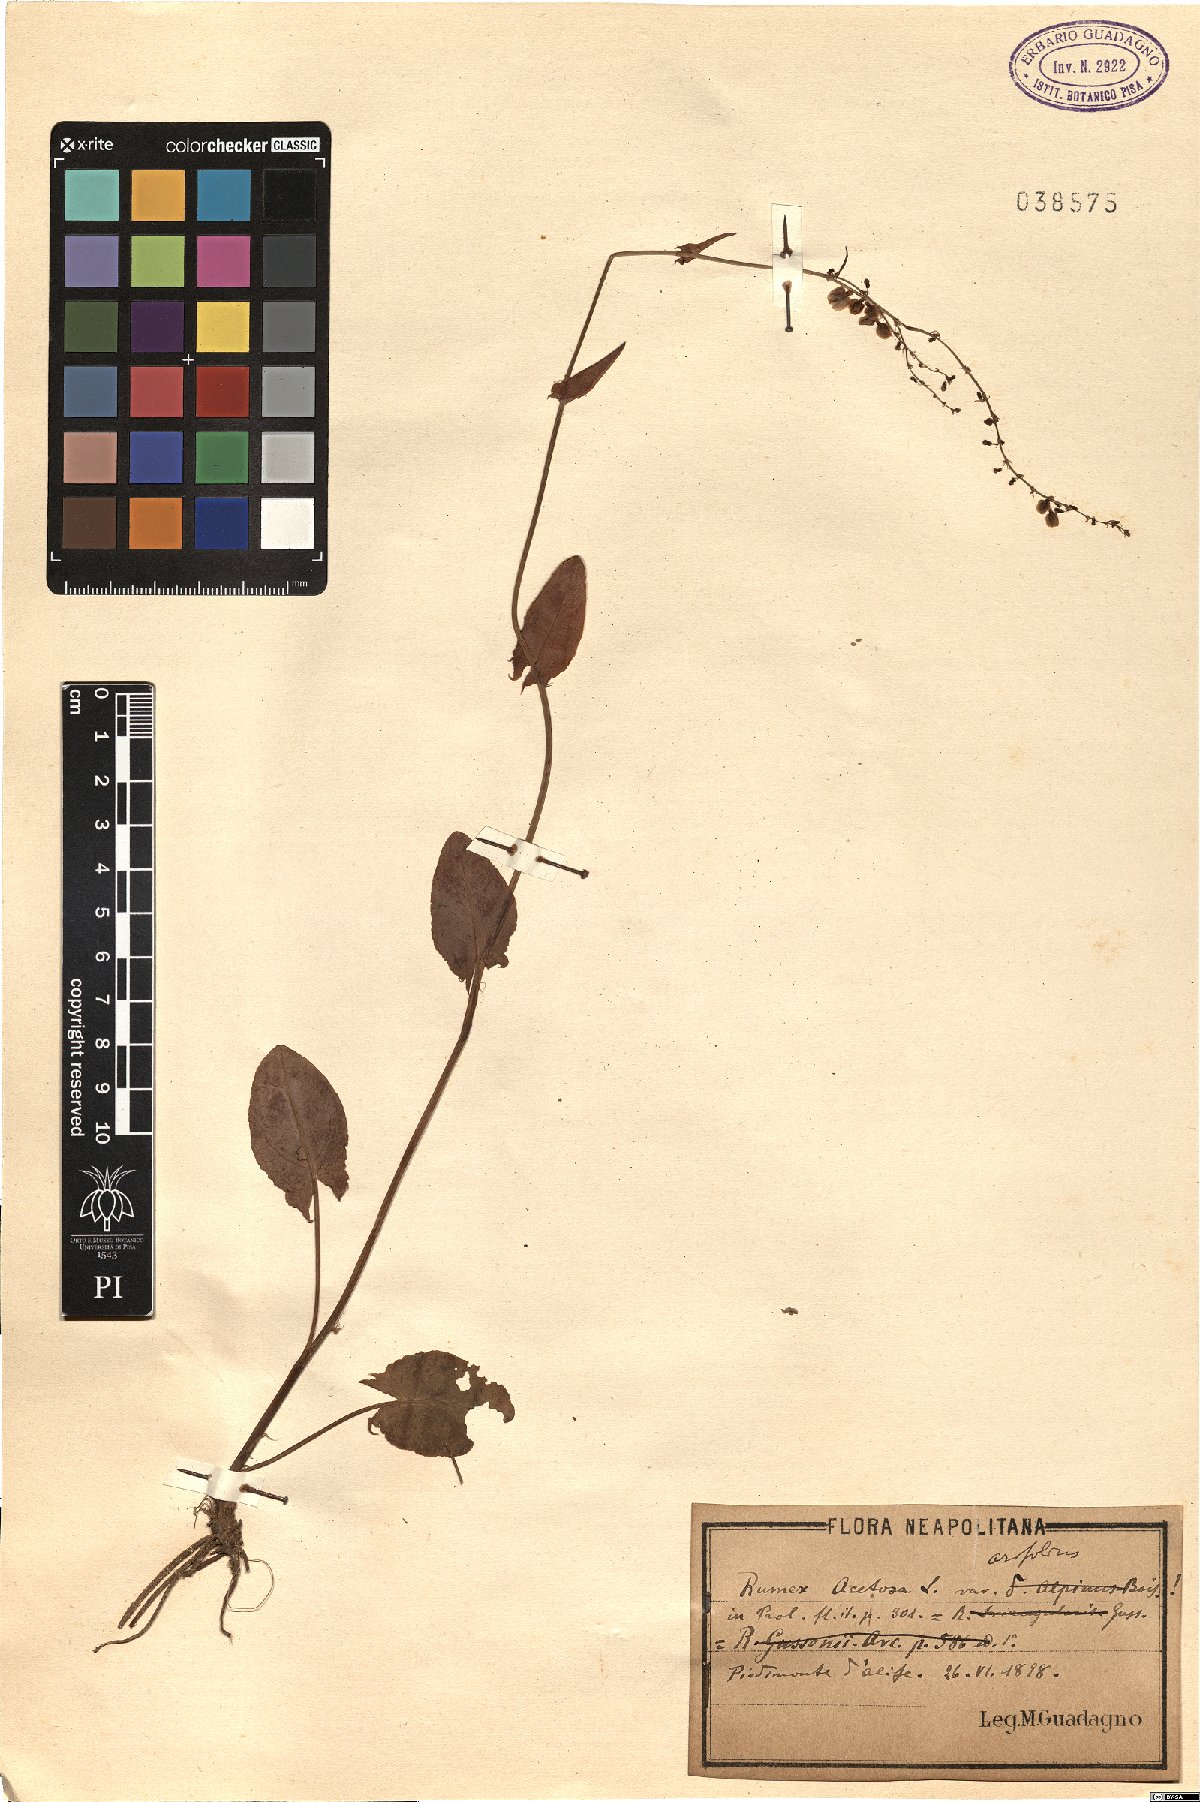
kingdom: Plantae
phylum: Tracheophyta
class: Magnoliopsida
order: Caryophyllales
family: Polygonaceae
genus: Rumex
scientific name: Rumex arifolius
